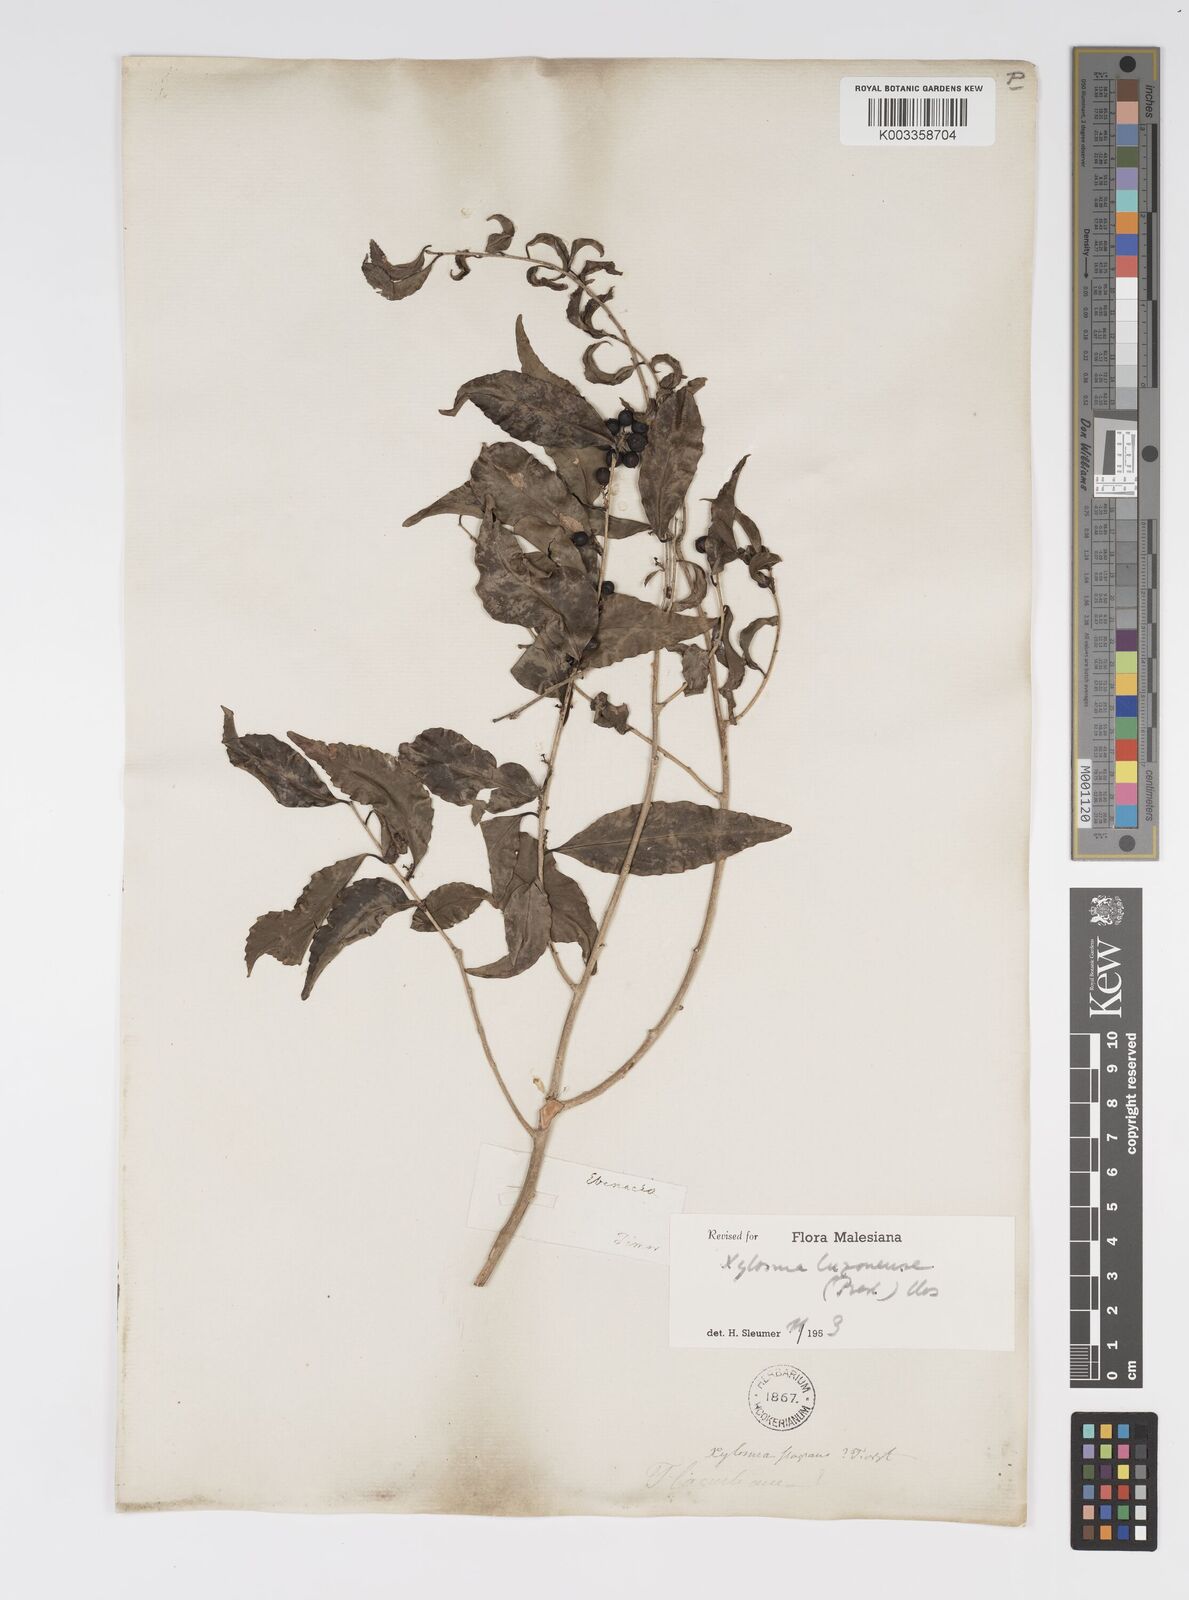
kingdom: Plantae
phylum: Tracheophyta
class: Magnoliopsida
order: Malpighiales
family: Salicaceae
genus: Xylosma
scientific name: Xylosma luzonensis
